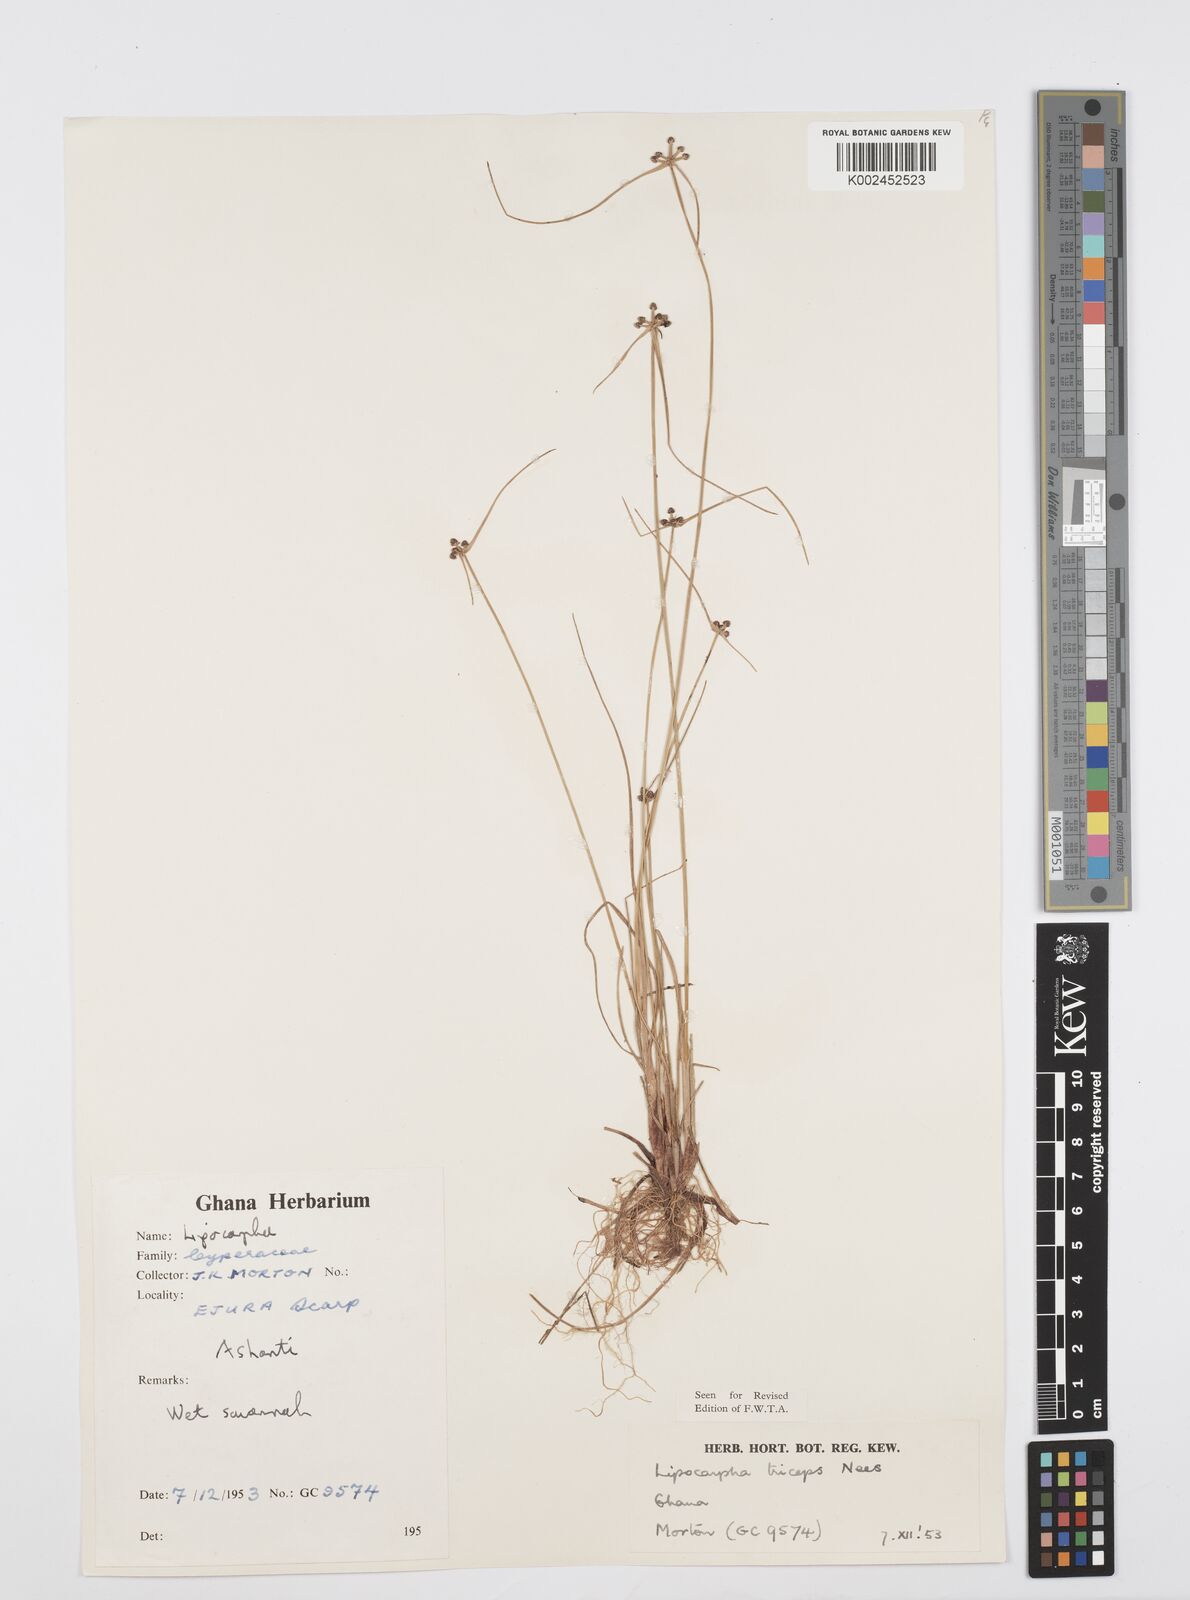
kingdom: Plantae
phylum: Tracheophyta
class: Liliopsida
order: Poales
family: Cyperaceae
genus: Cyperus
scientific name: Cyperus filiformis
